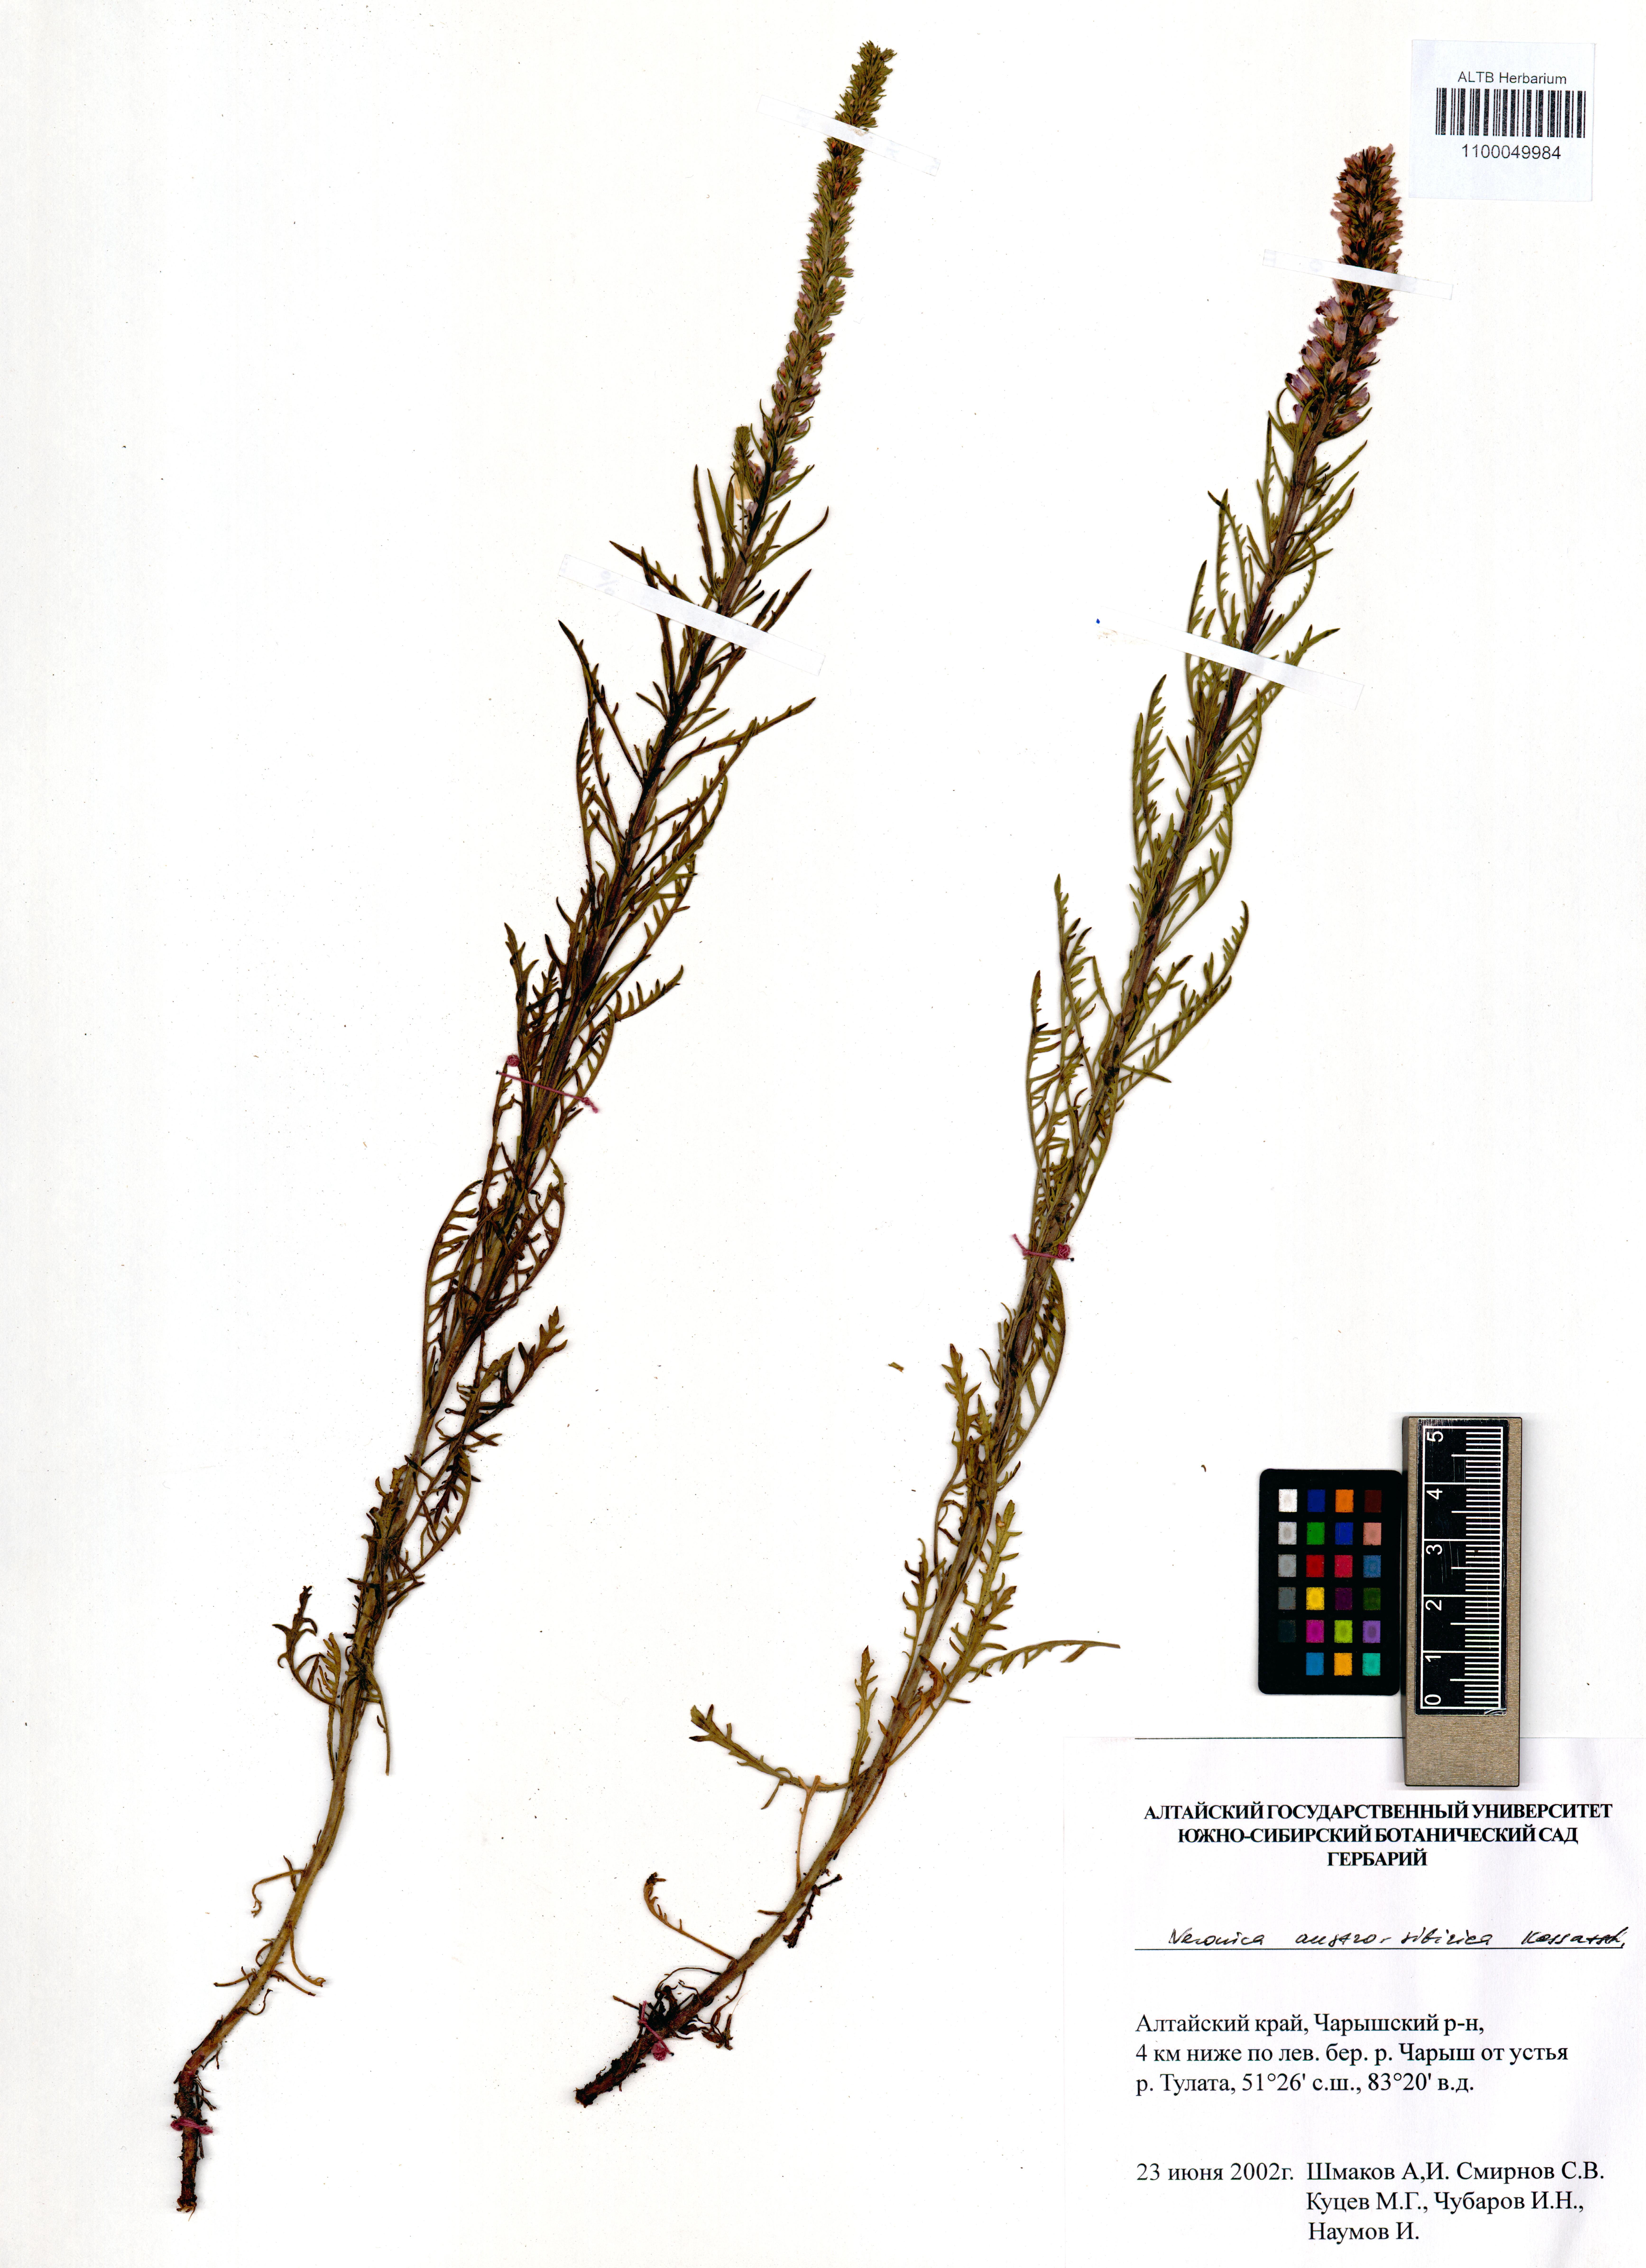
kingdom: Plantae
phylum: Tracheophyta
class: Magnoliopsida
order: Lamiales
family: Plantaginaceae
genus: Veronica
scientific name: Veronica altaica
